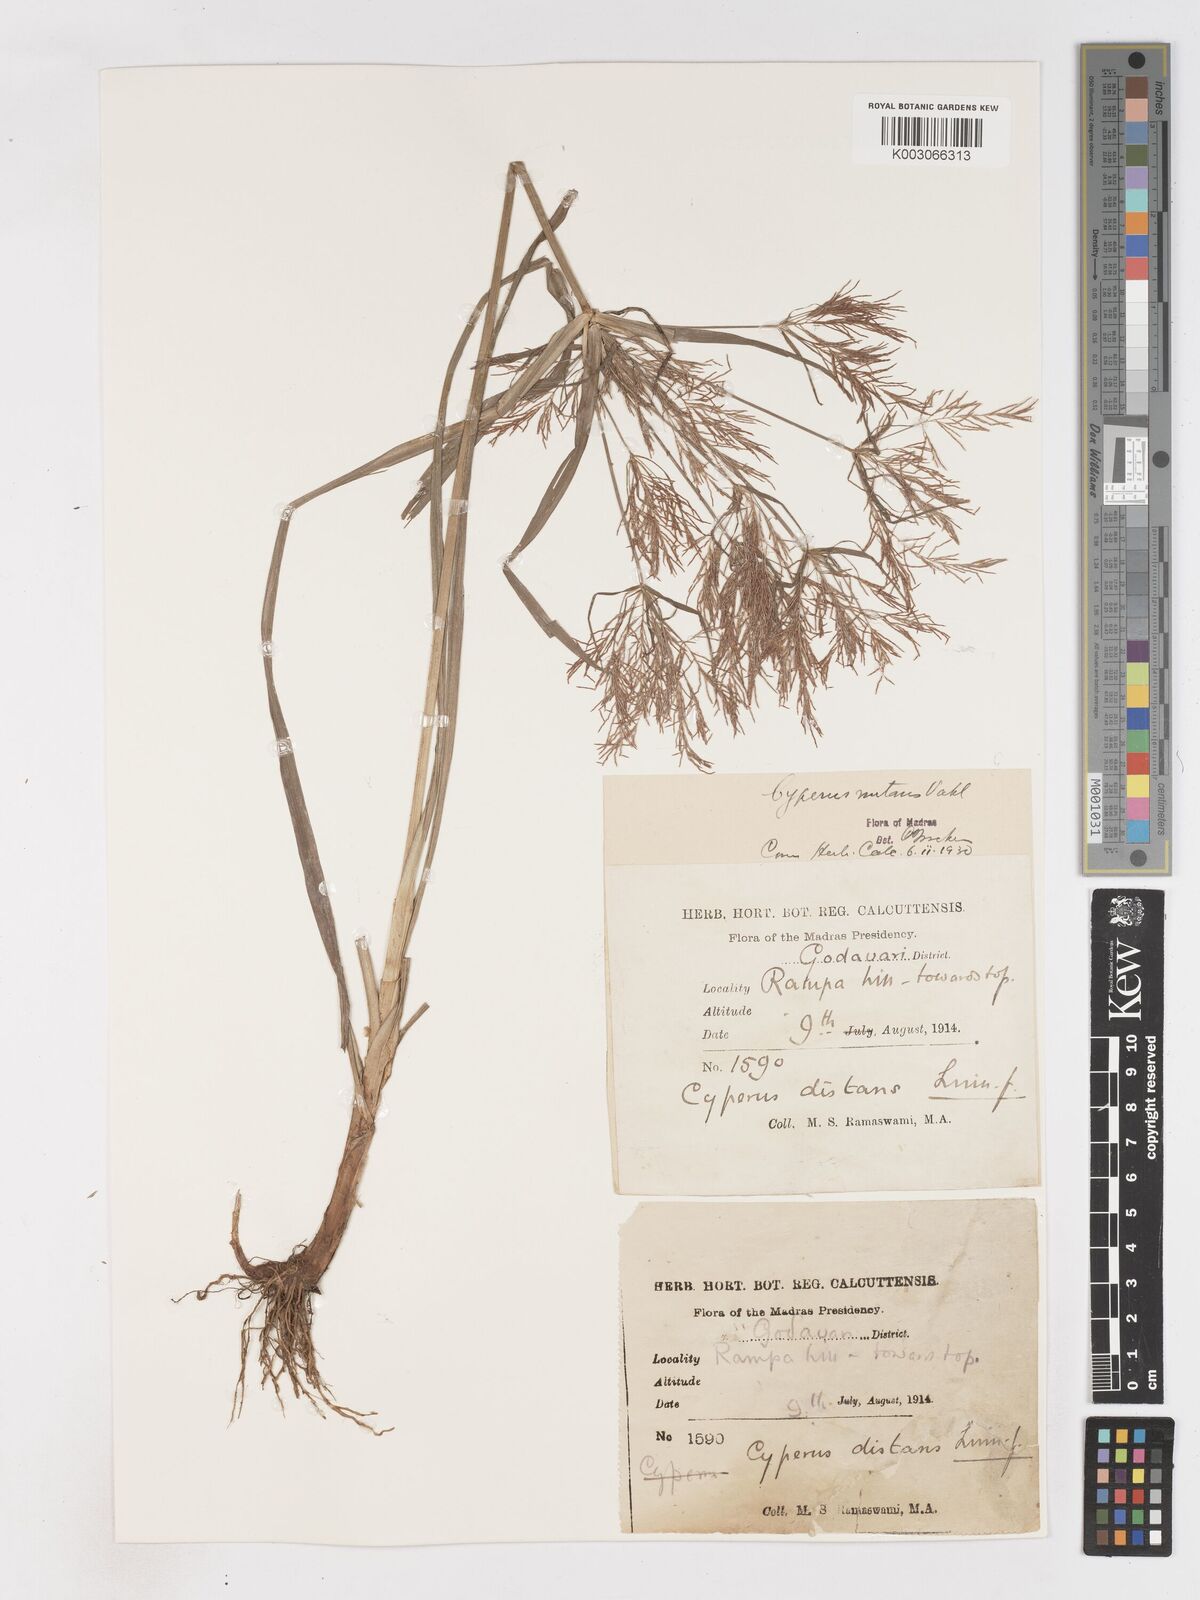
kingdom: Plantae
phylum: Tracheophyta
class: Liliopsida
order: Poales
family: Cyperaceae
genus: Cyperus
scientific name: Cyperus distans
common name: Slender cyperus
